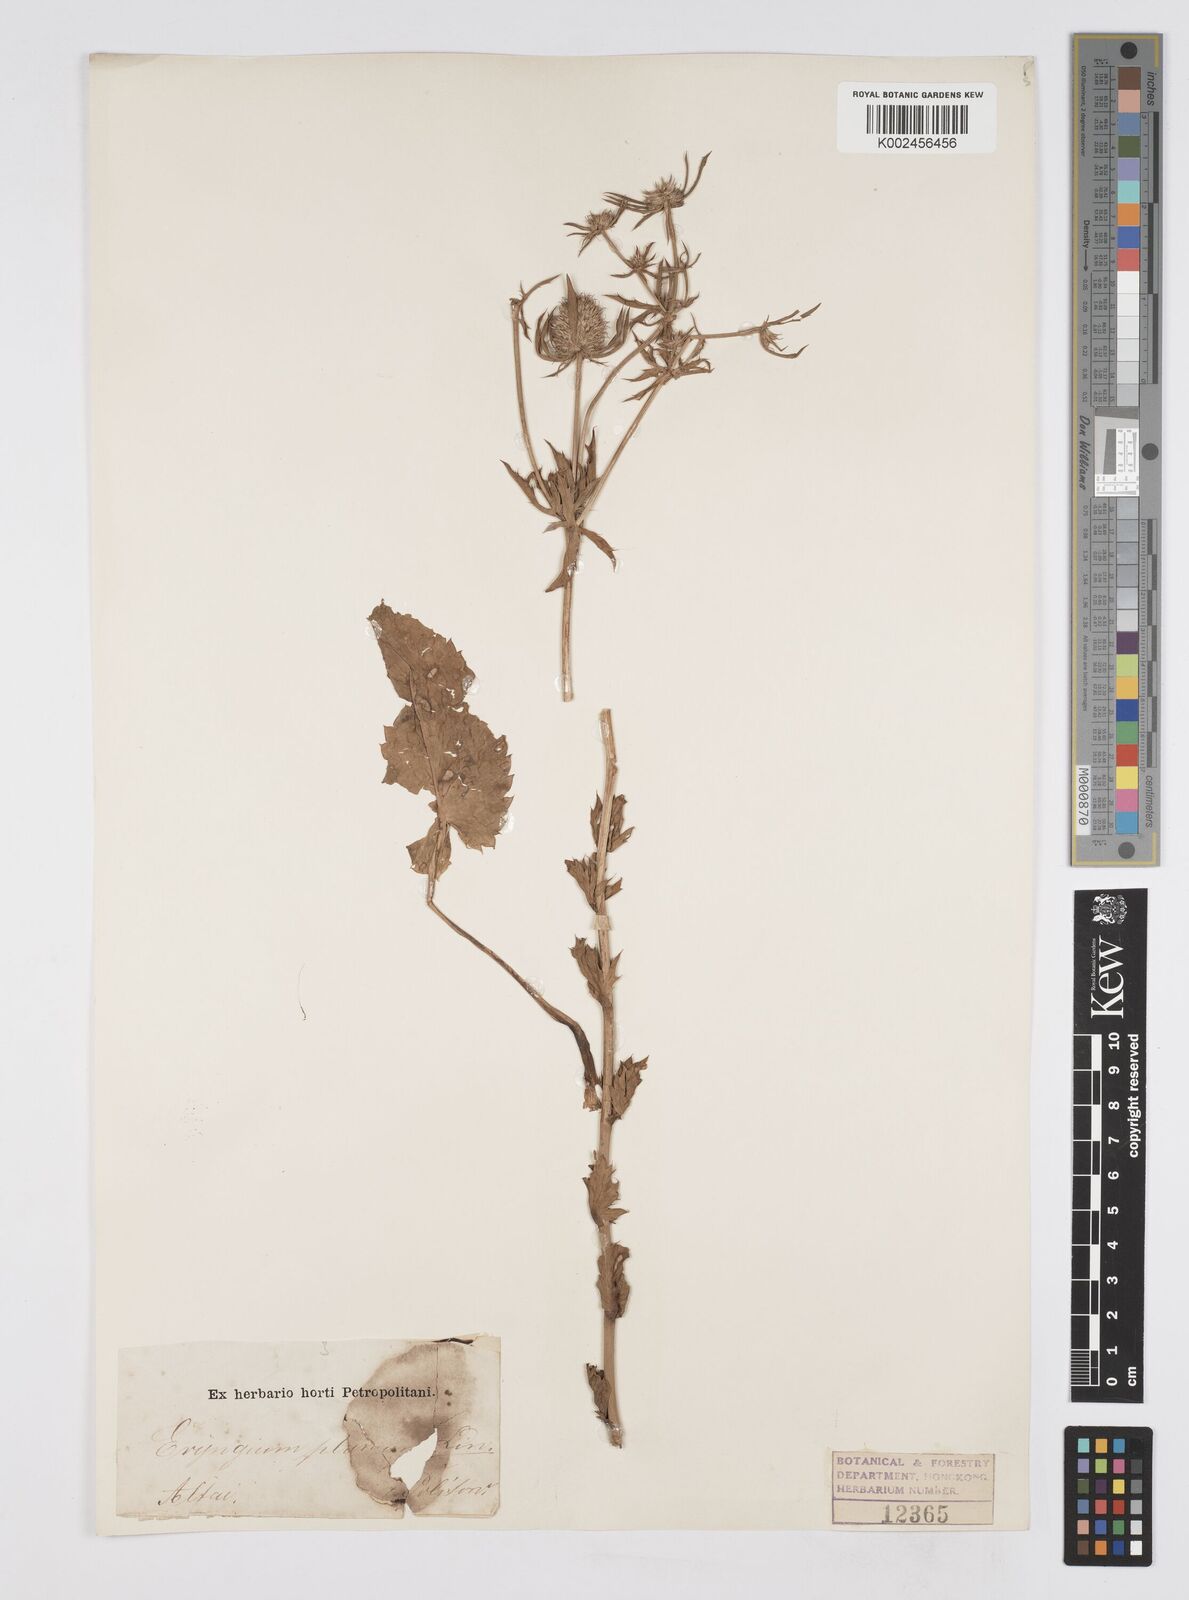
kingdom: Plantae
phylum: Tracheophyta
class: Magnoliopsida
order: Apiales
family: Apiaceae
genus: Eryngium
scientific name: Eryngium planum
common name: Blue eryngo
